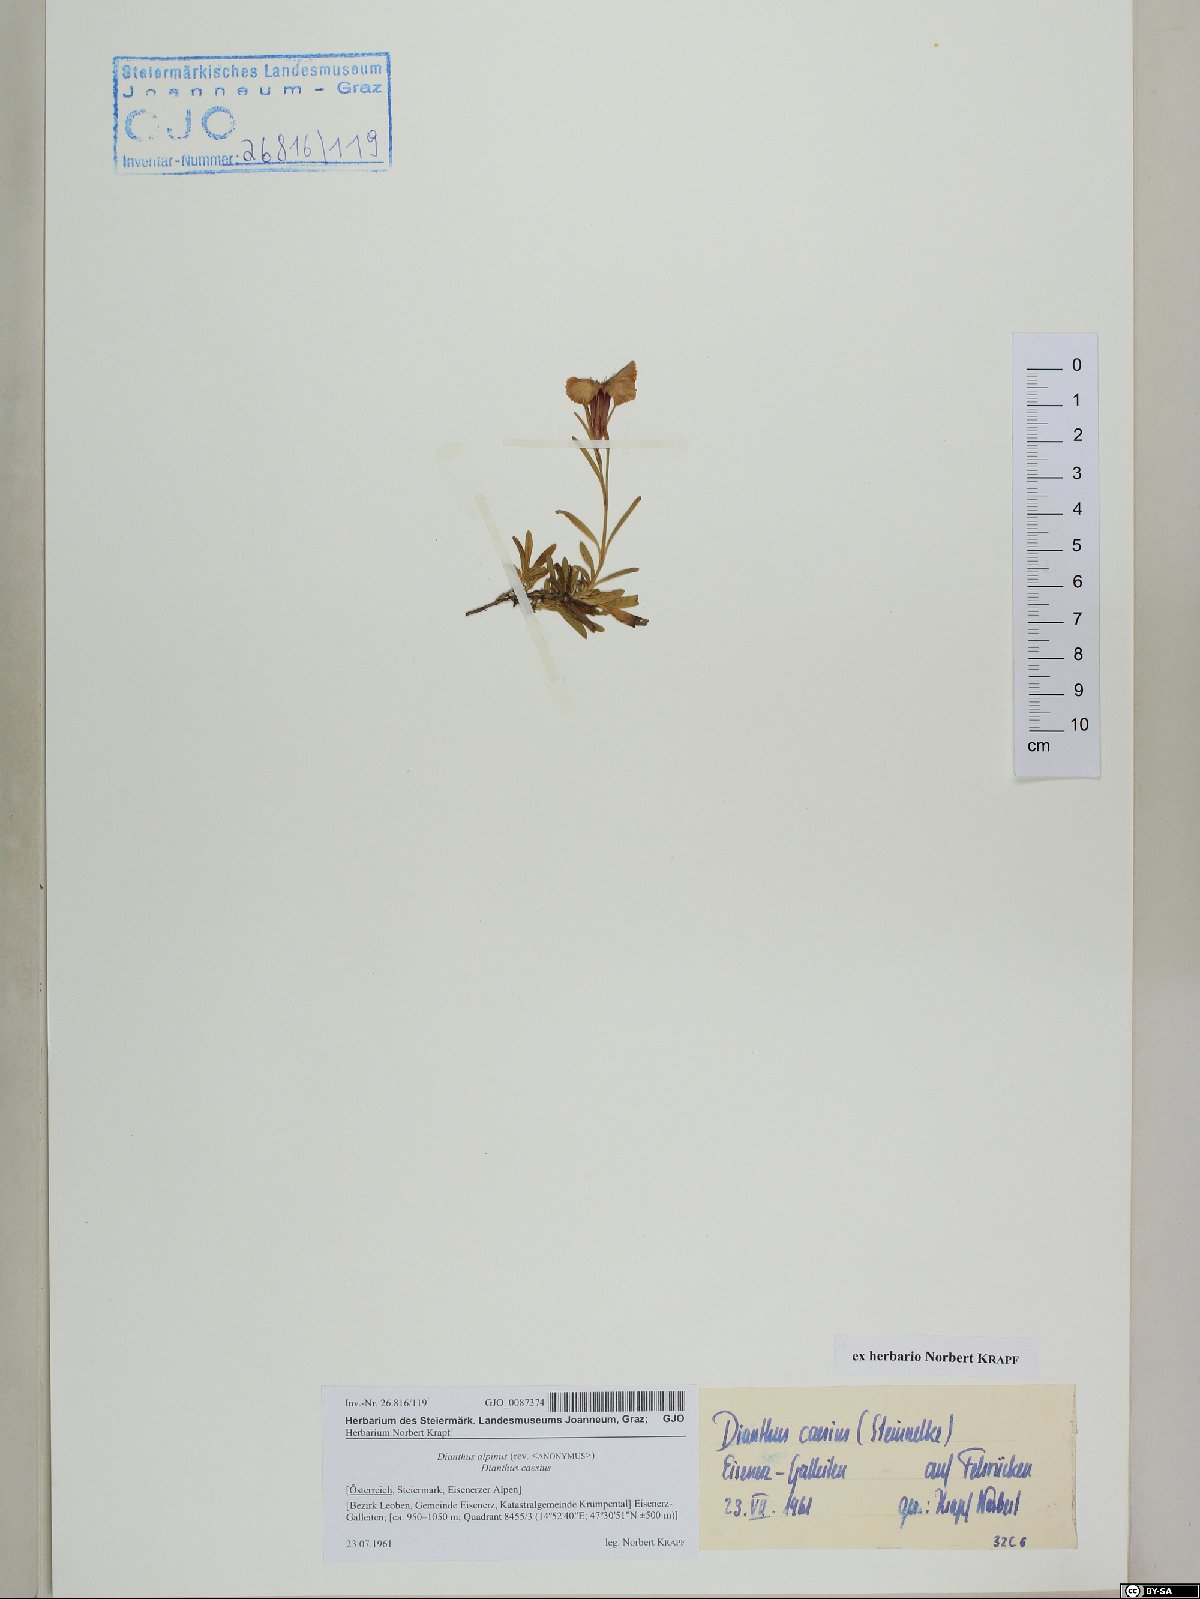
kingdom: Plantae
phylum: Tracheophyta
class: Magnoliopsida
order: Caryophyllales
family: Caryophyllaceae
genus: Dianthus
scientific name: Dianthus alpinus
